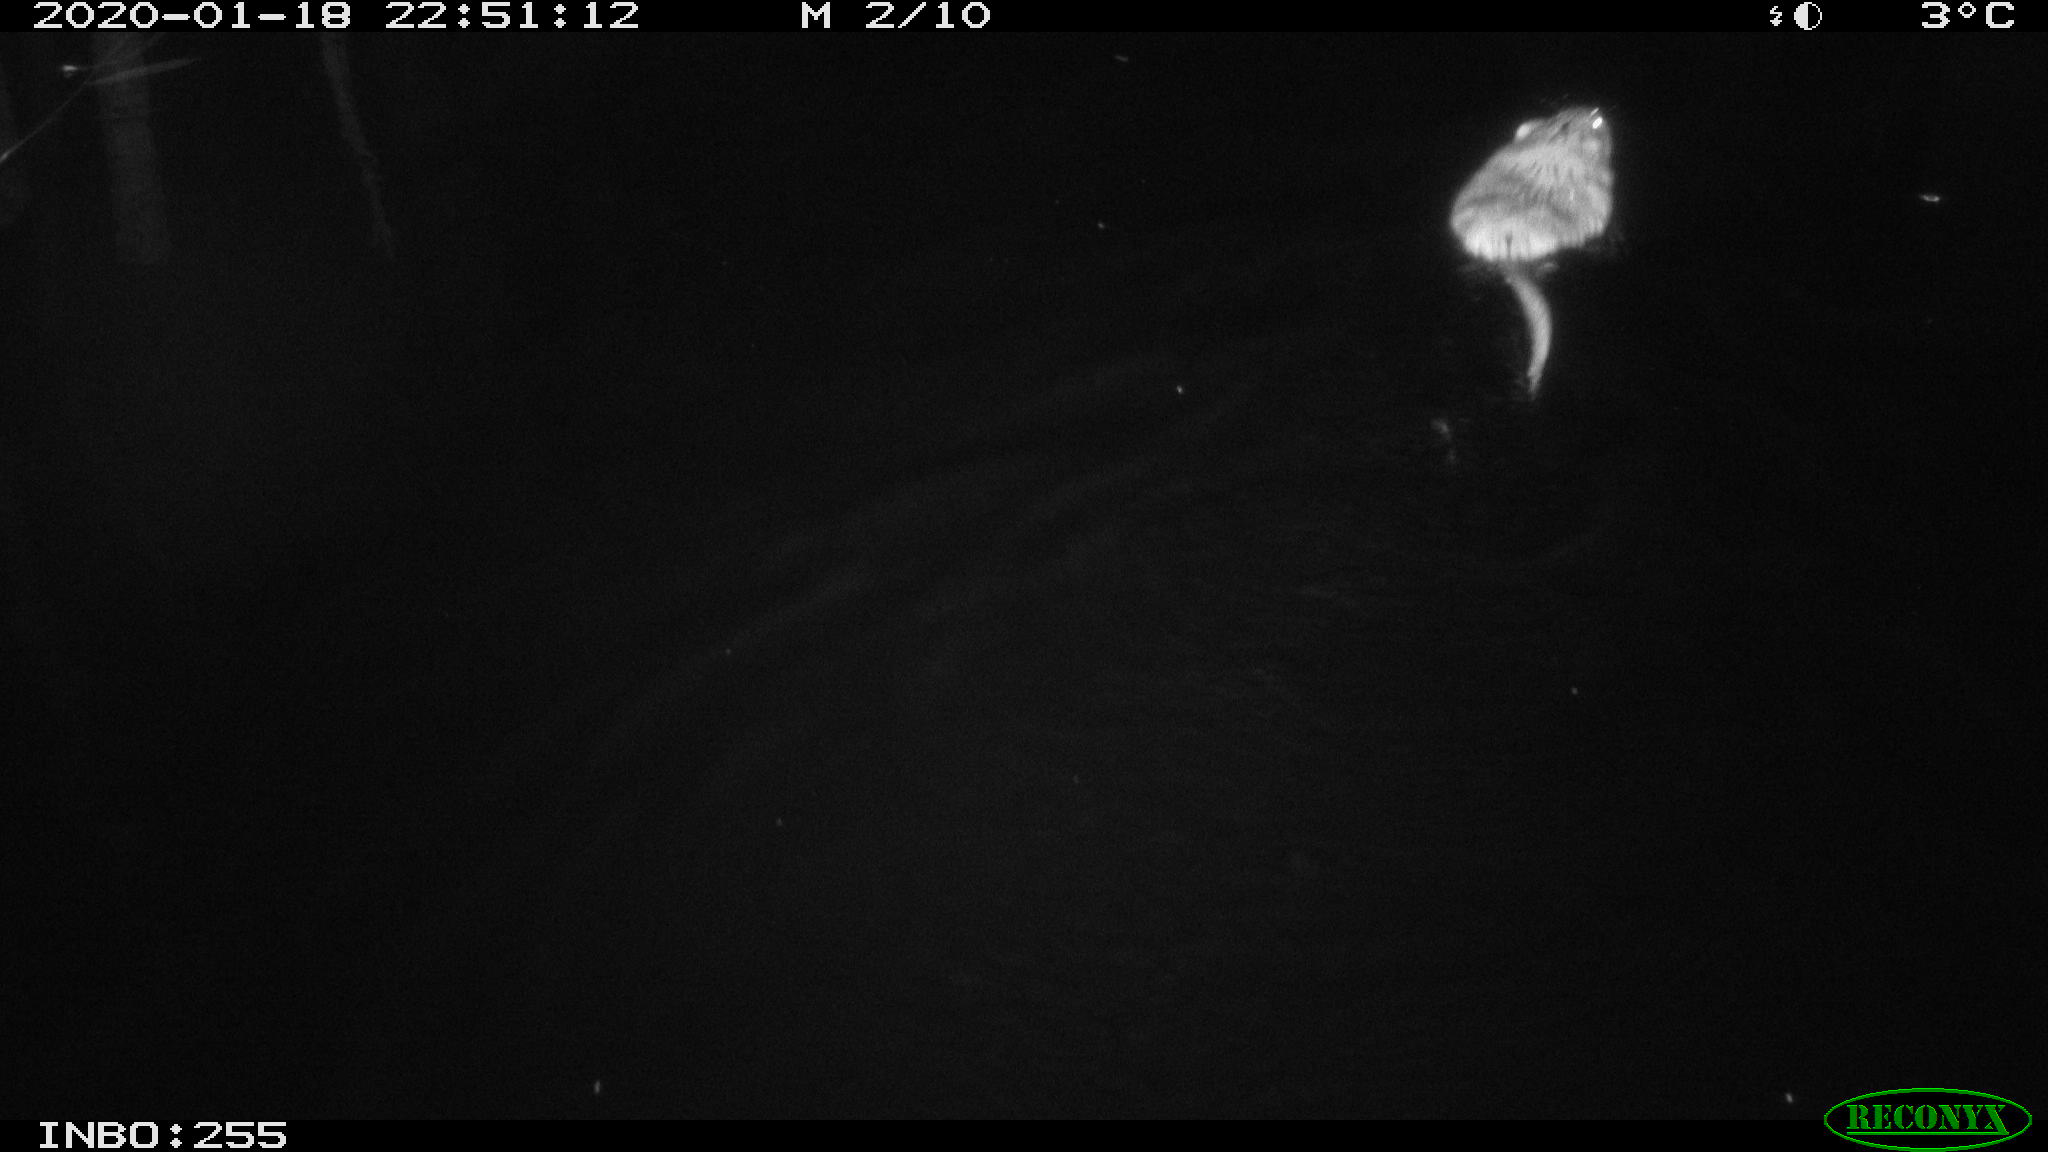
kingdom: Animalia
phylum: Chordata
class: Mammalia
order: Rodentia
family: Cricetidae
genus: Ondatra
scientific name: Ondatra zibethicus
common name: Muskrat
